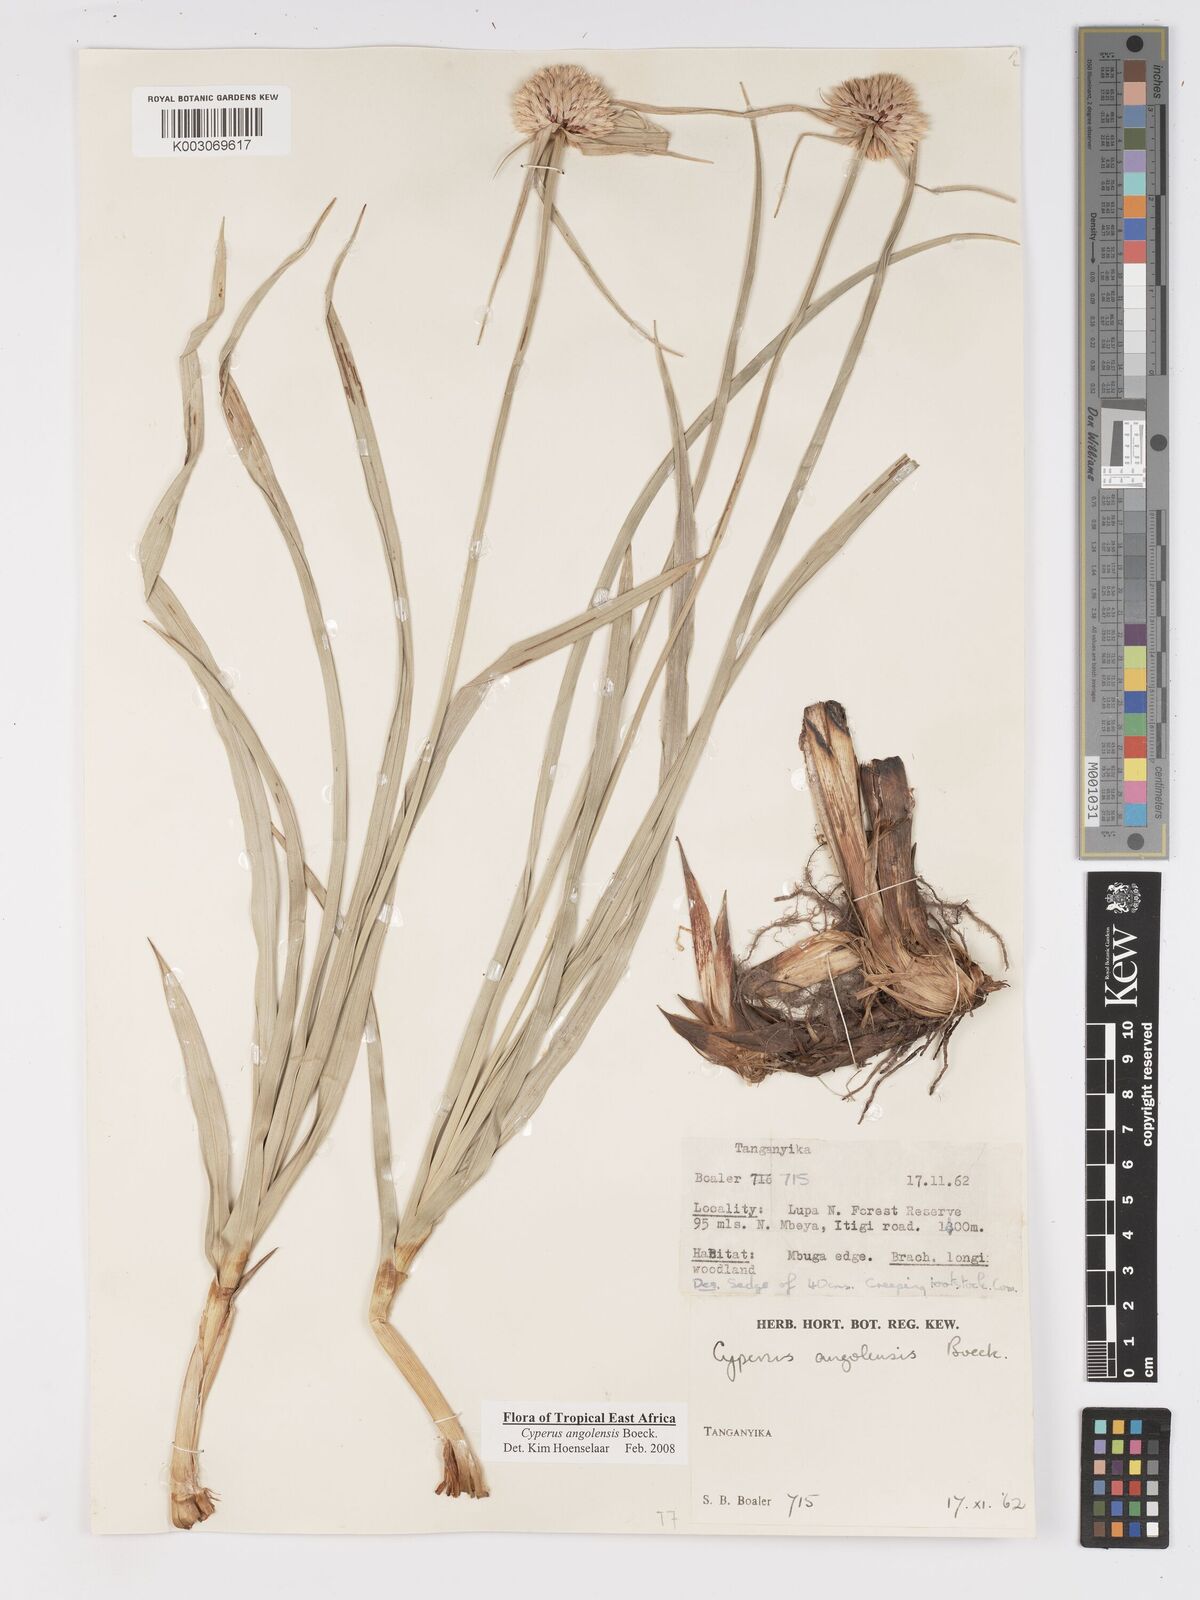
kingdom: Plantae
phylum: Tracheophyta
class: Liliopsida
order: Poales
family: Cyperaceae
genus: Cyperus
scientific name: Cyperus angolensis
